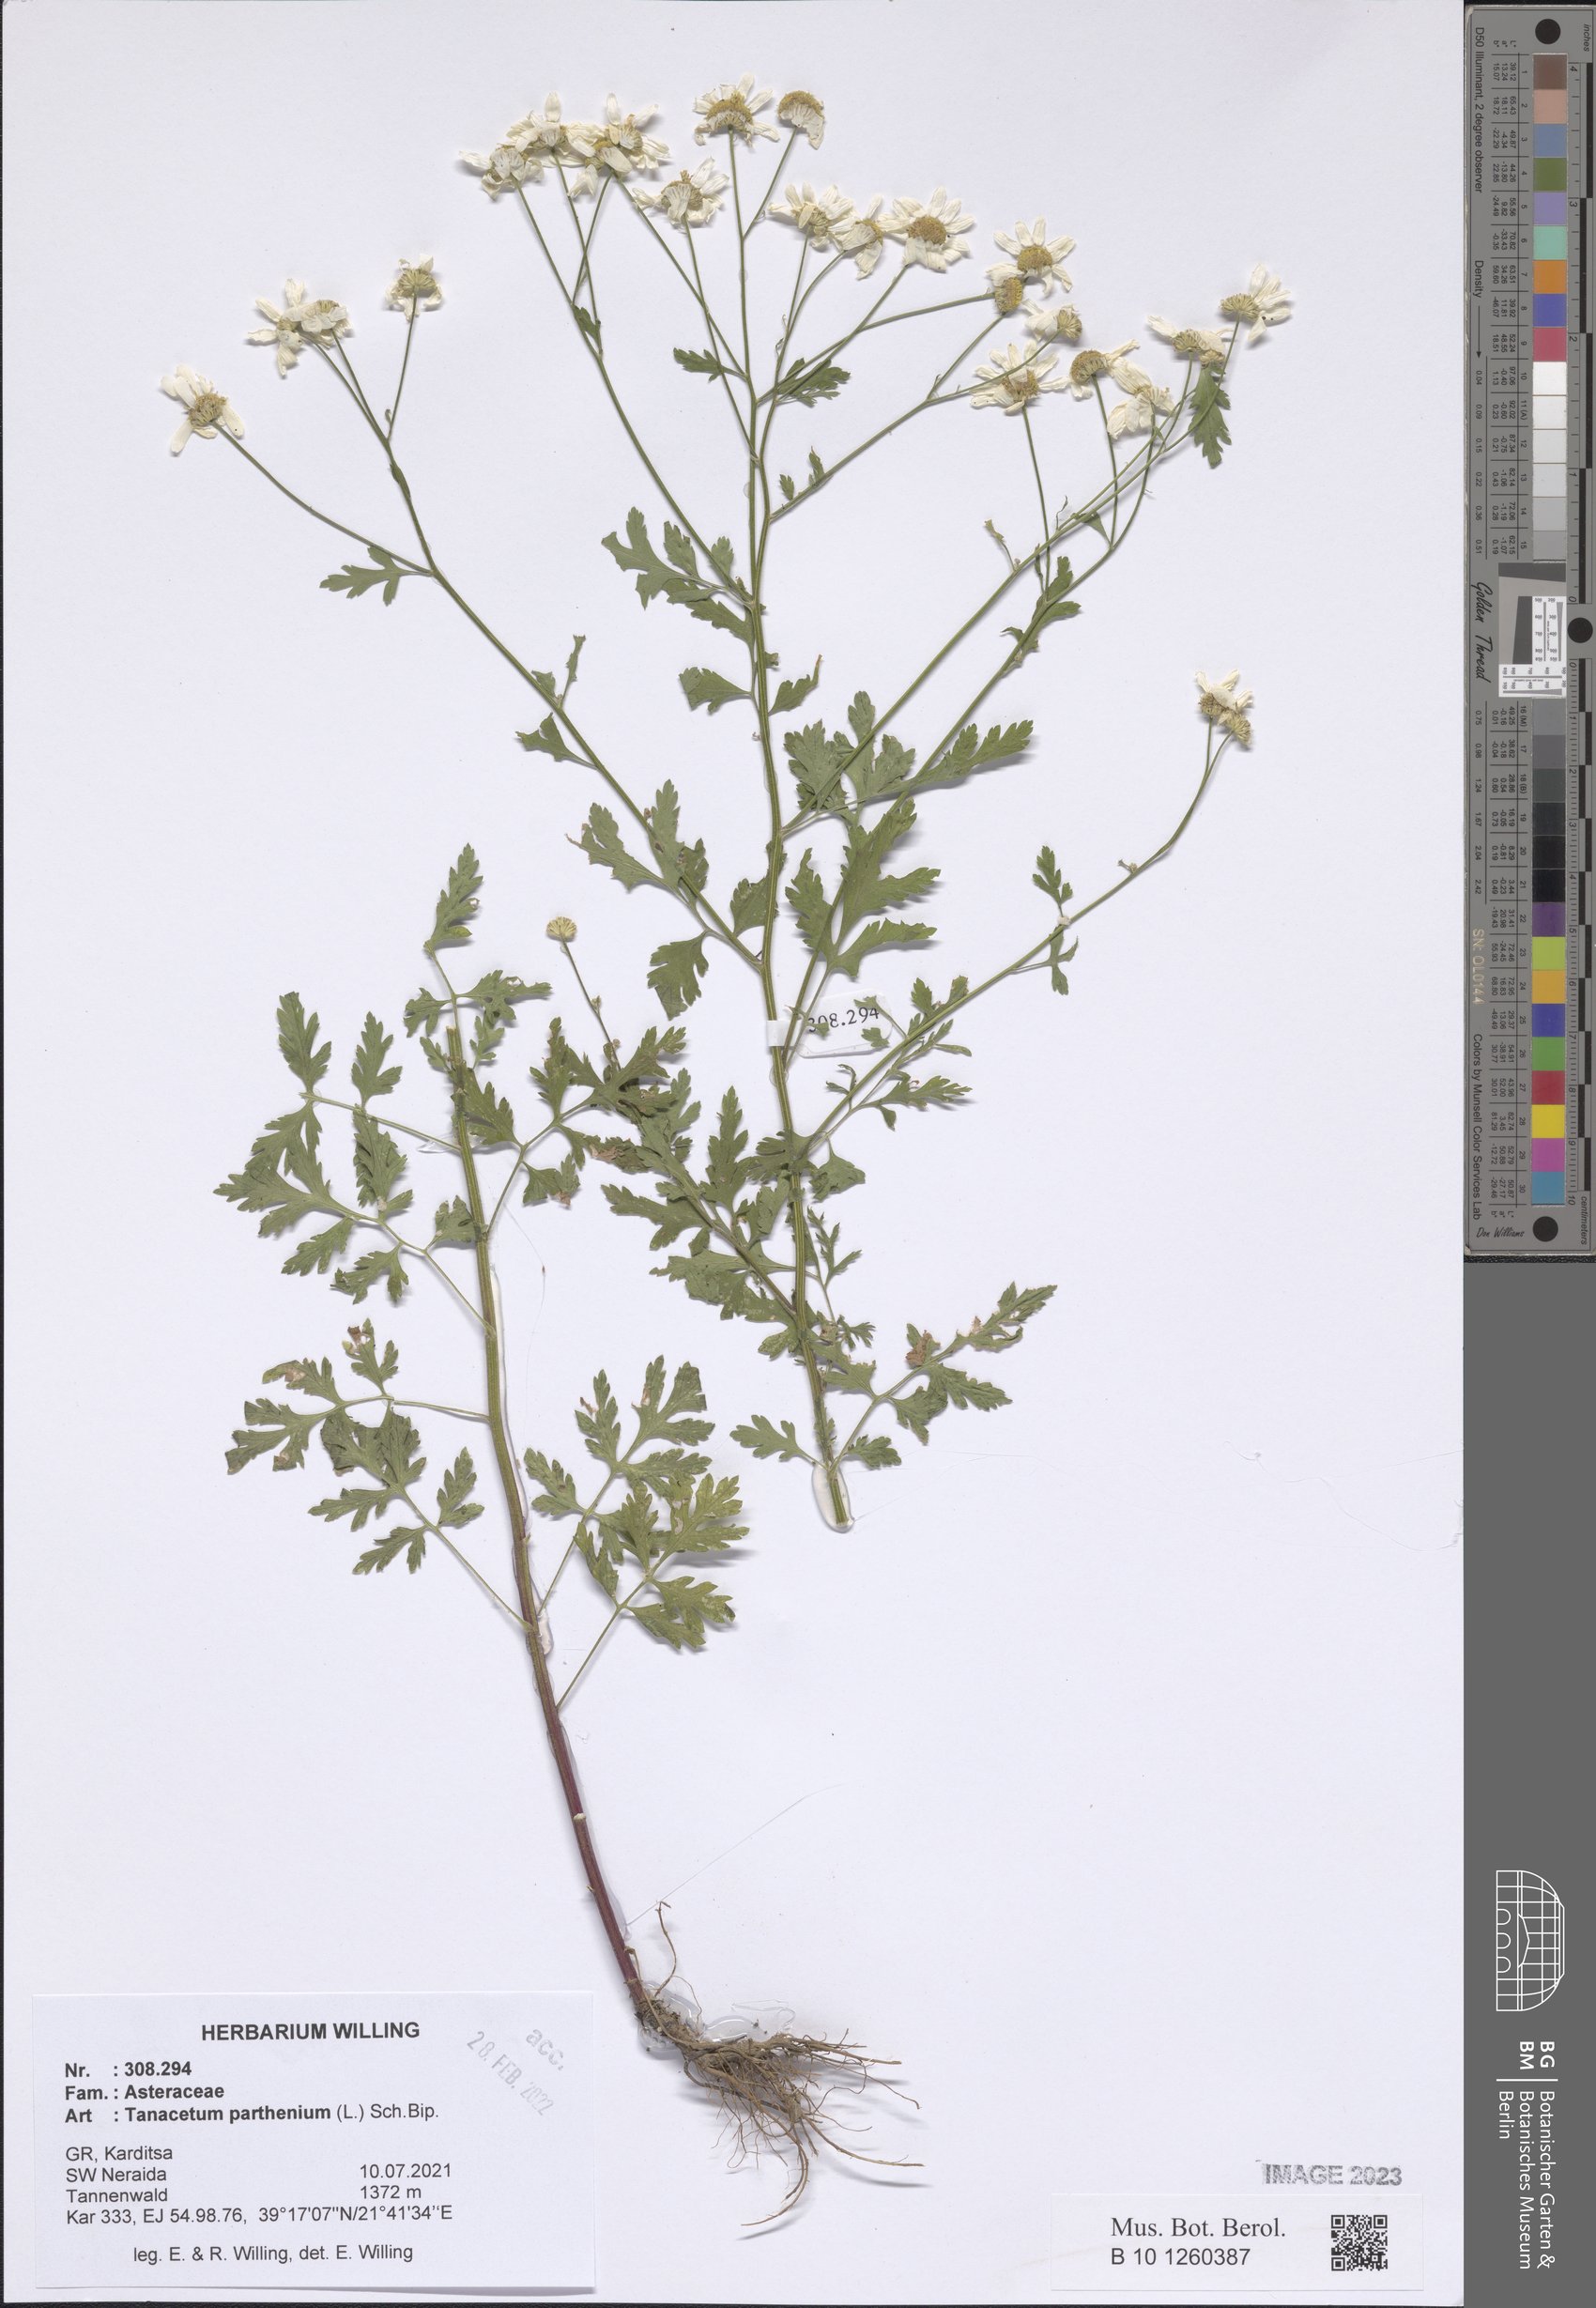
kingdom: Plantae
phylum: Tracheophyta
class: Magnoliopsida
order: Asterales
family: Asteraceae
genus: Tanacetum
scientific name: Tanacetum parthenium
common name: Feverfew
